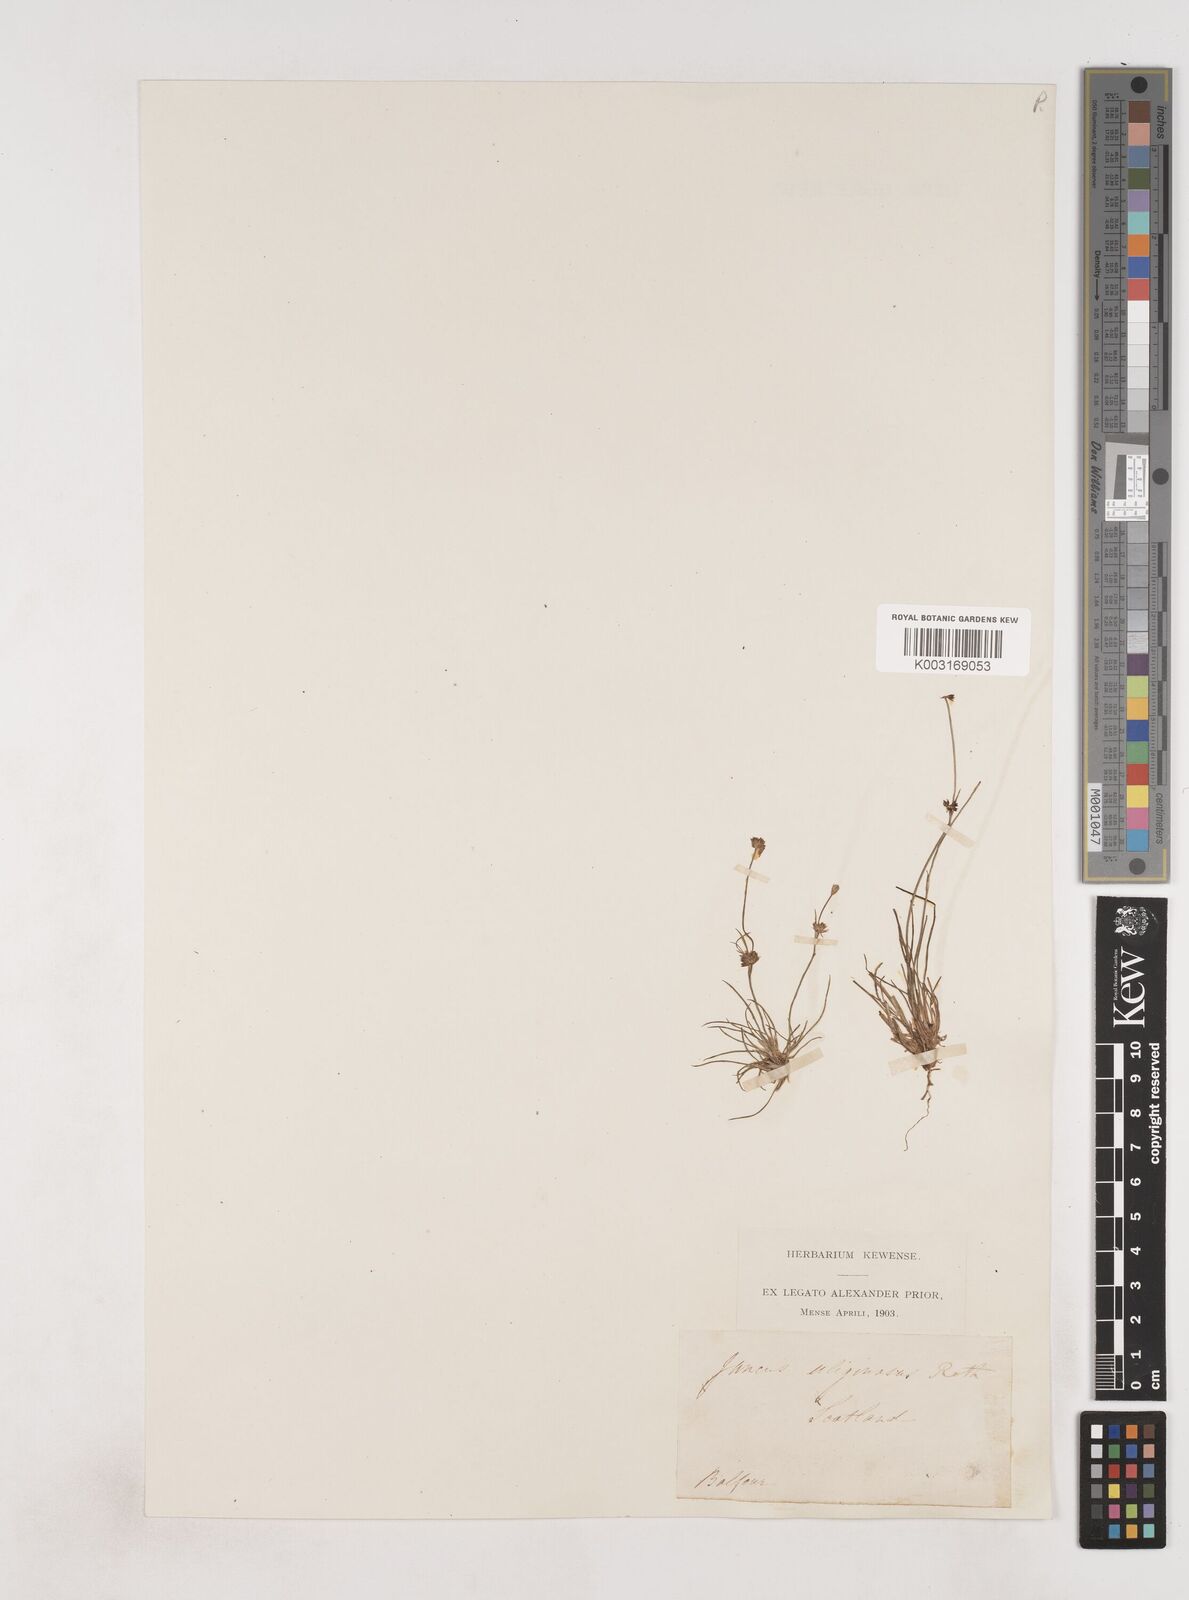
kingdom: Plantae
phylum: Tracheophyta
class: Liliopsida
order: Poales
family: Juncaceae
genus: Juncus
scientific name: Juncus bulbosus
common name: Bulbous rush
